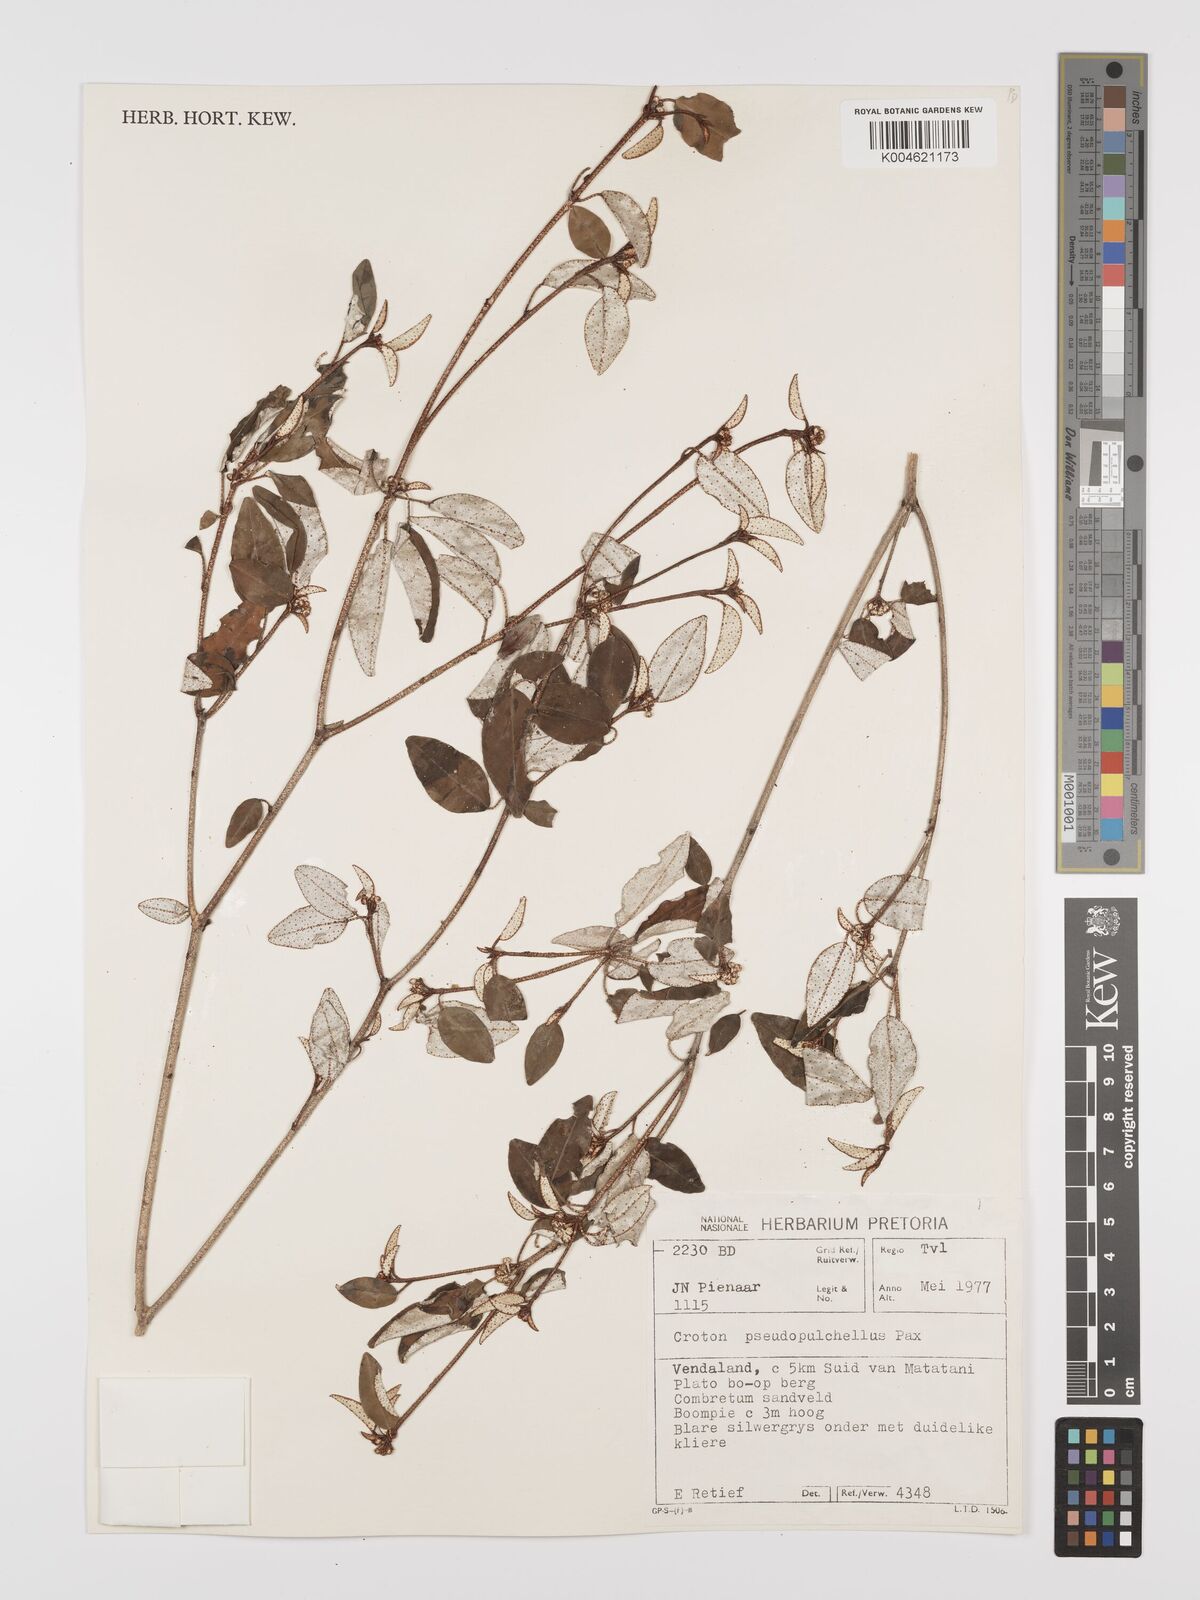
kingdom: Plantae
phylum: Tracheophyta
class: Magnoliopsida
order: Malpighiales
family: Euphorbiaceae
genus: Croton
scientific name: Croton pseudopulchellus
